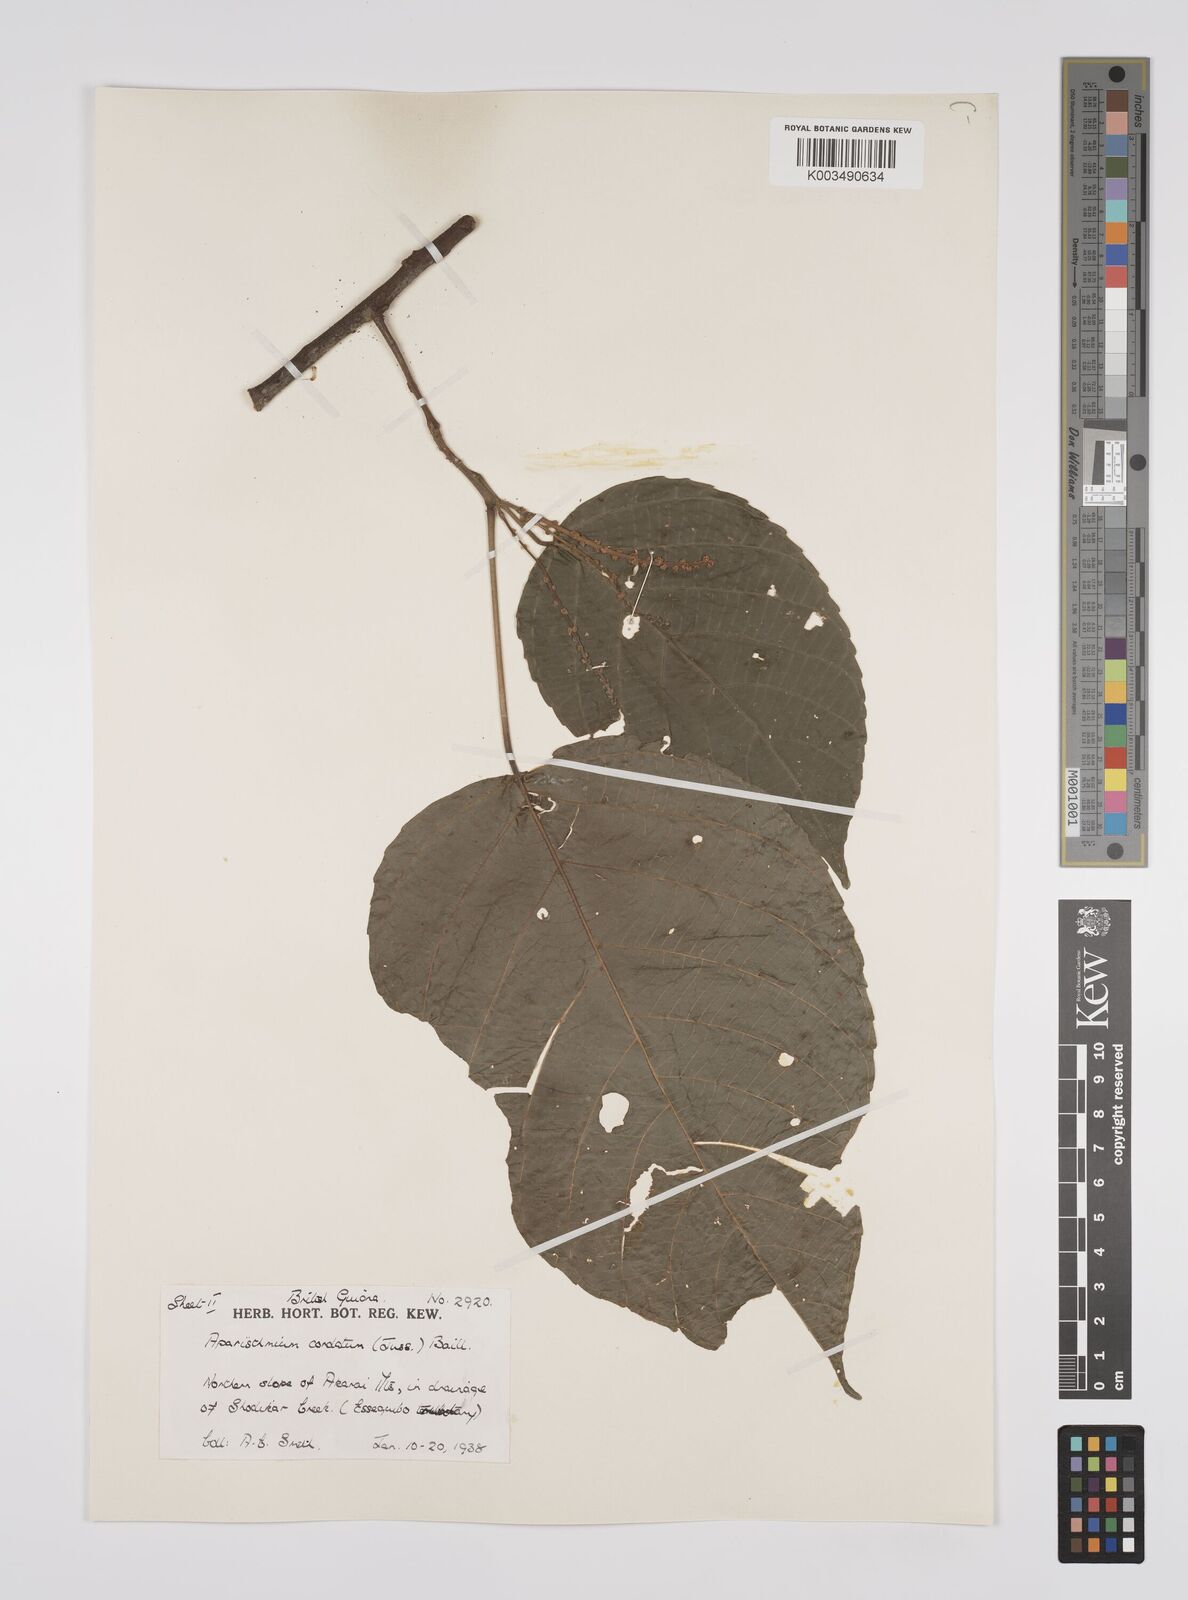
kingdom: Plantae
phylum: Tracheophyta
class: Magnoliopsida
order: Malpighiales
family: Euphorbiaceae
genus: Aparisthmium
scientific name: Aparisthmium cordatum
